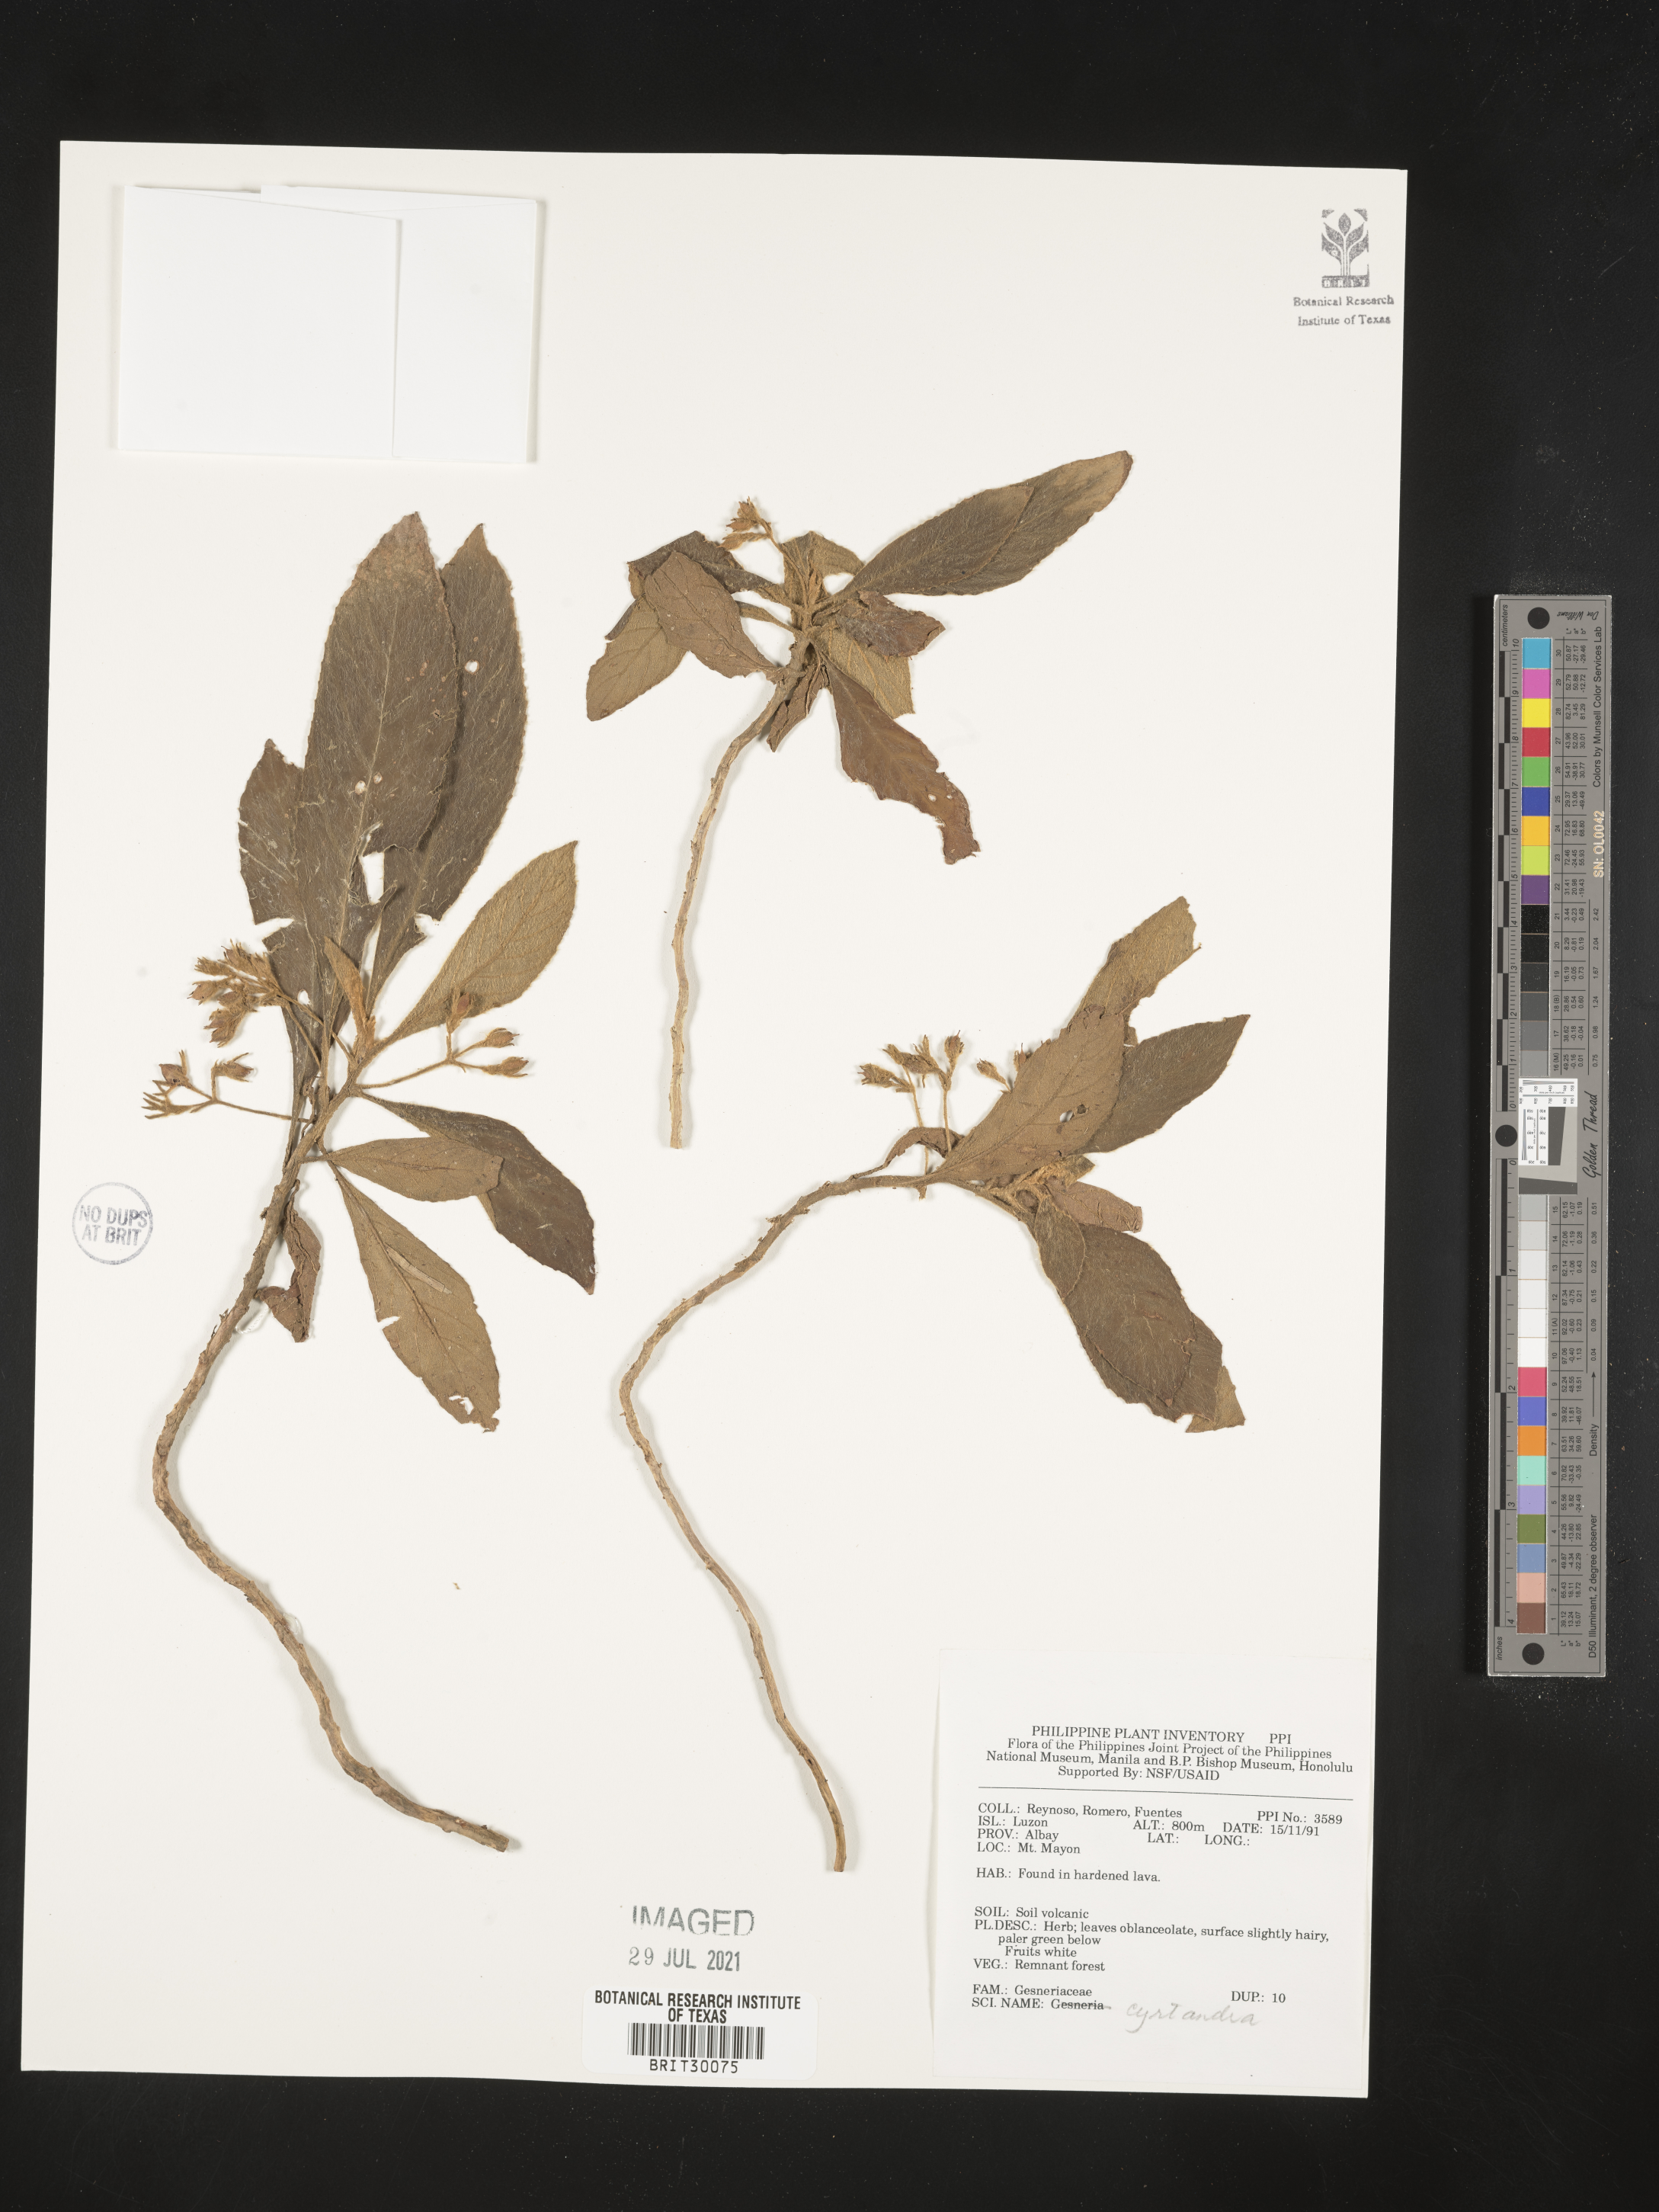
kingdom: Plantae
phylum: Tracheophyta
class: Magnoliopsida
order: Lamiales
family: Gesneriaceae
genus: Cyrtandra
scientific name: Cyrtandra
